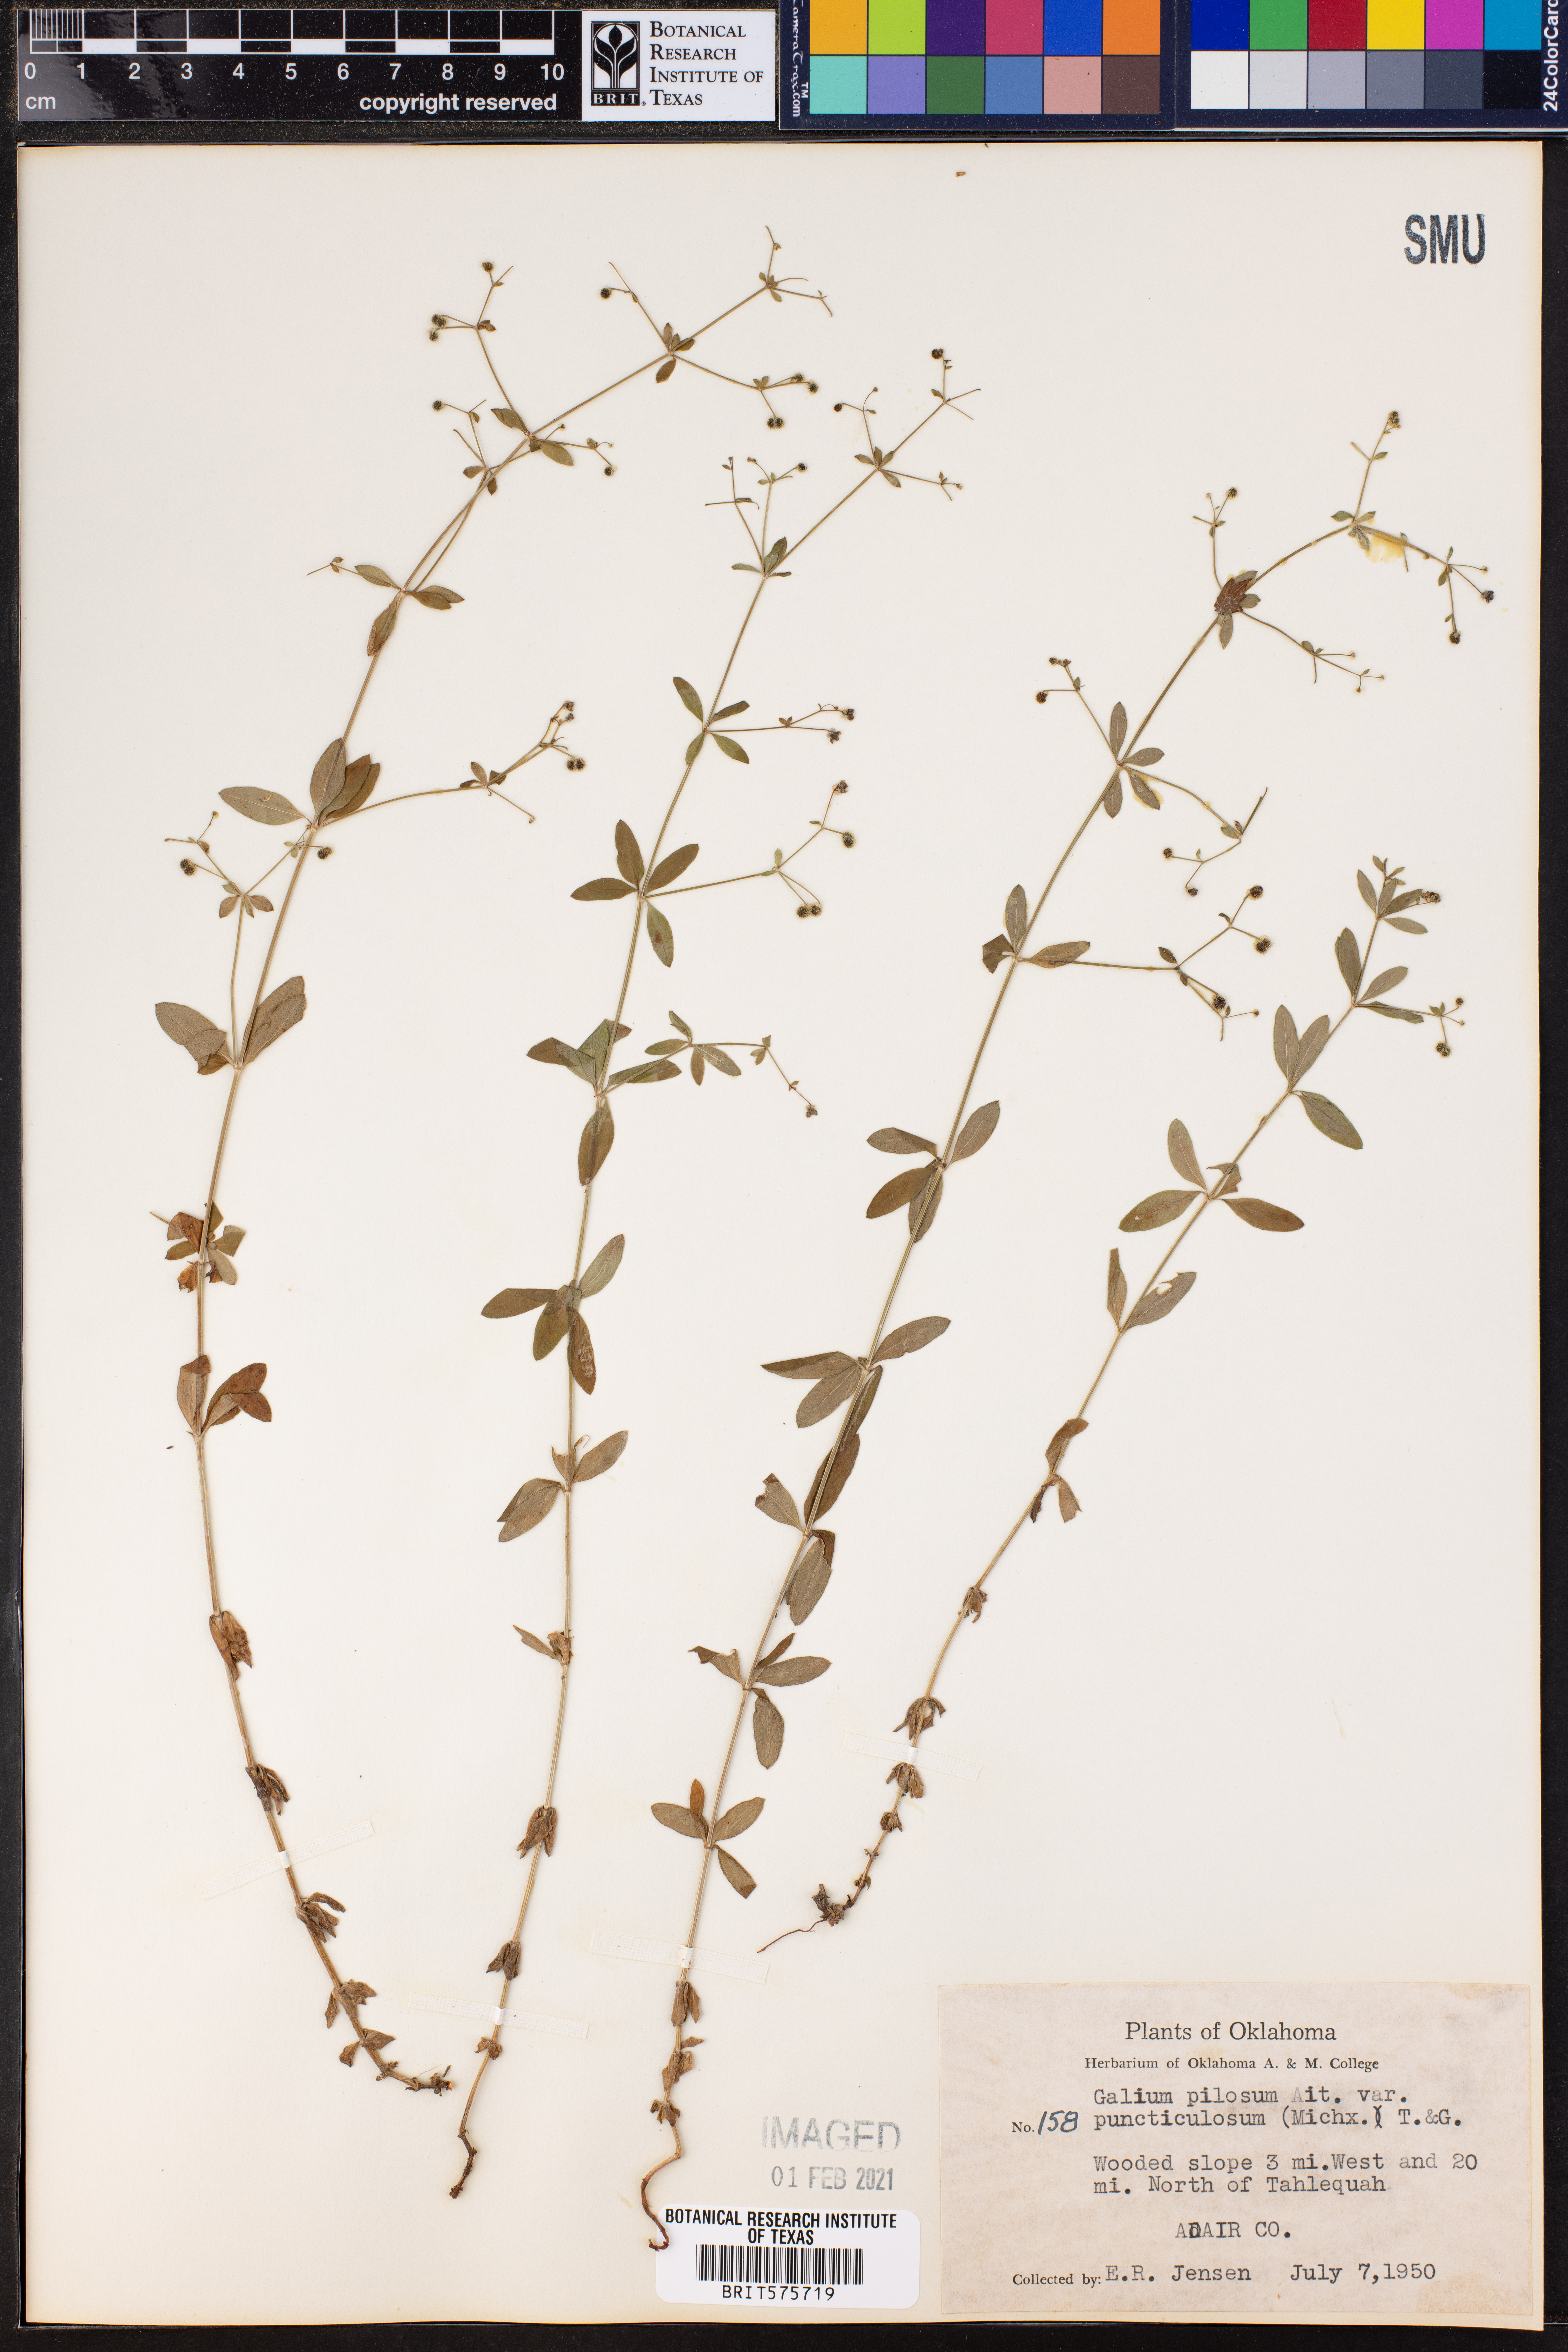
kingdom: Plantae
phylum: Tracheophyta
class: Magnoliopsida
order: Gentianales
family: Rubiaceae
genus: Galium
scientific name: Galium pilosum
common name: Hairy bedstraw
